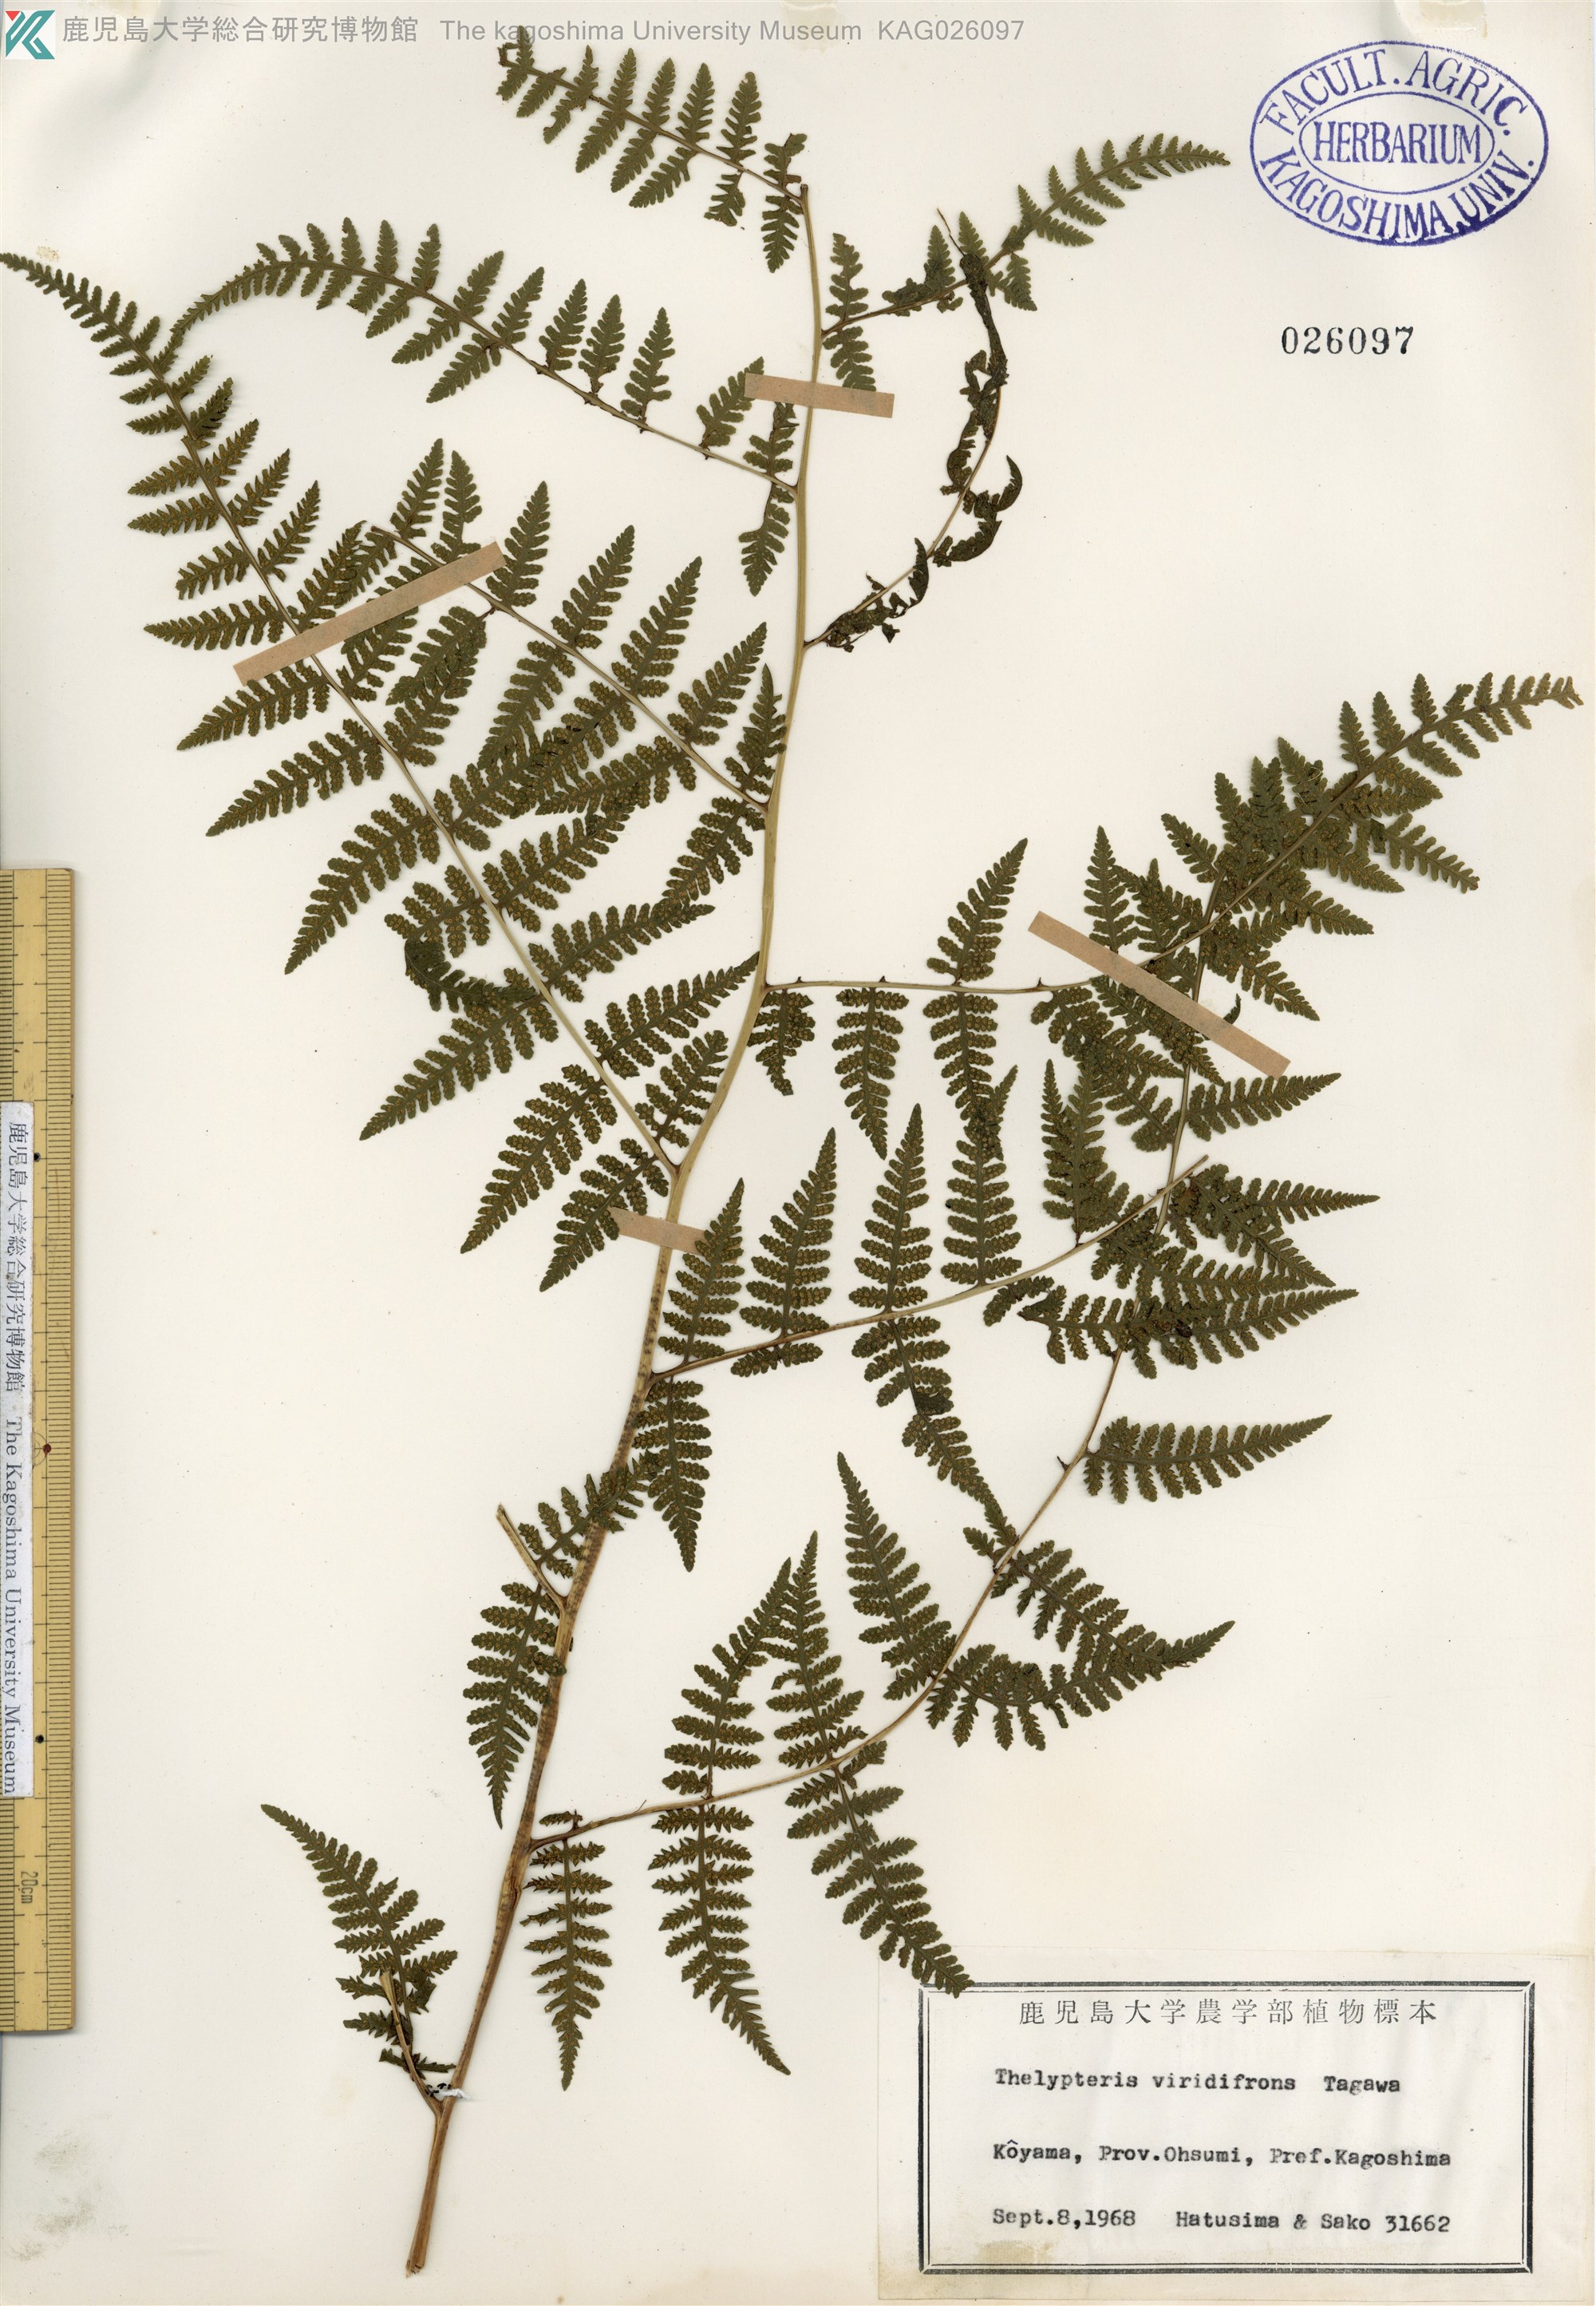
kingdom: Plantae
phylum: Tracheophyta
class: Polypodiopsida
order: Polypodiales
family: Thelypteridaceae
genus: Macrothelypteris
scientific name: Macrothelypteris viridifrons
